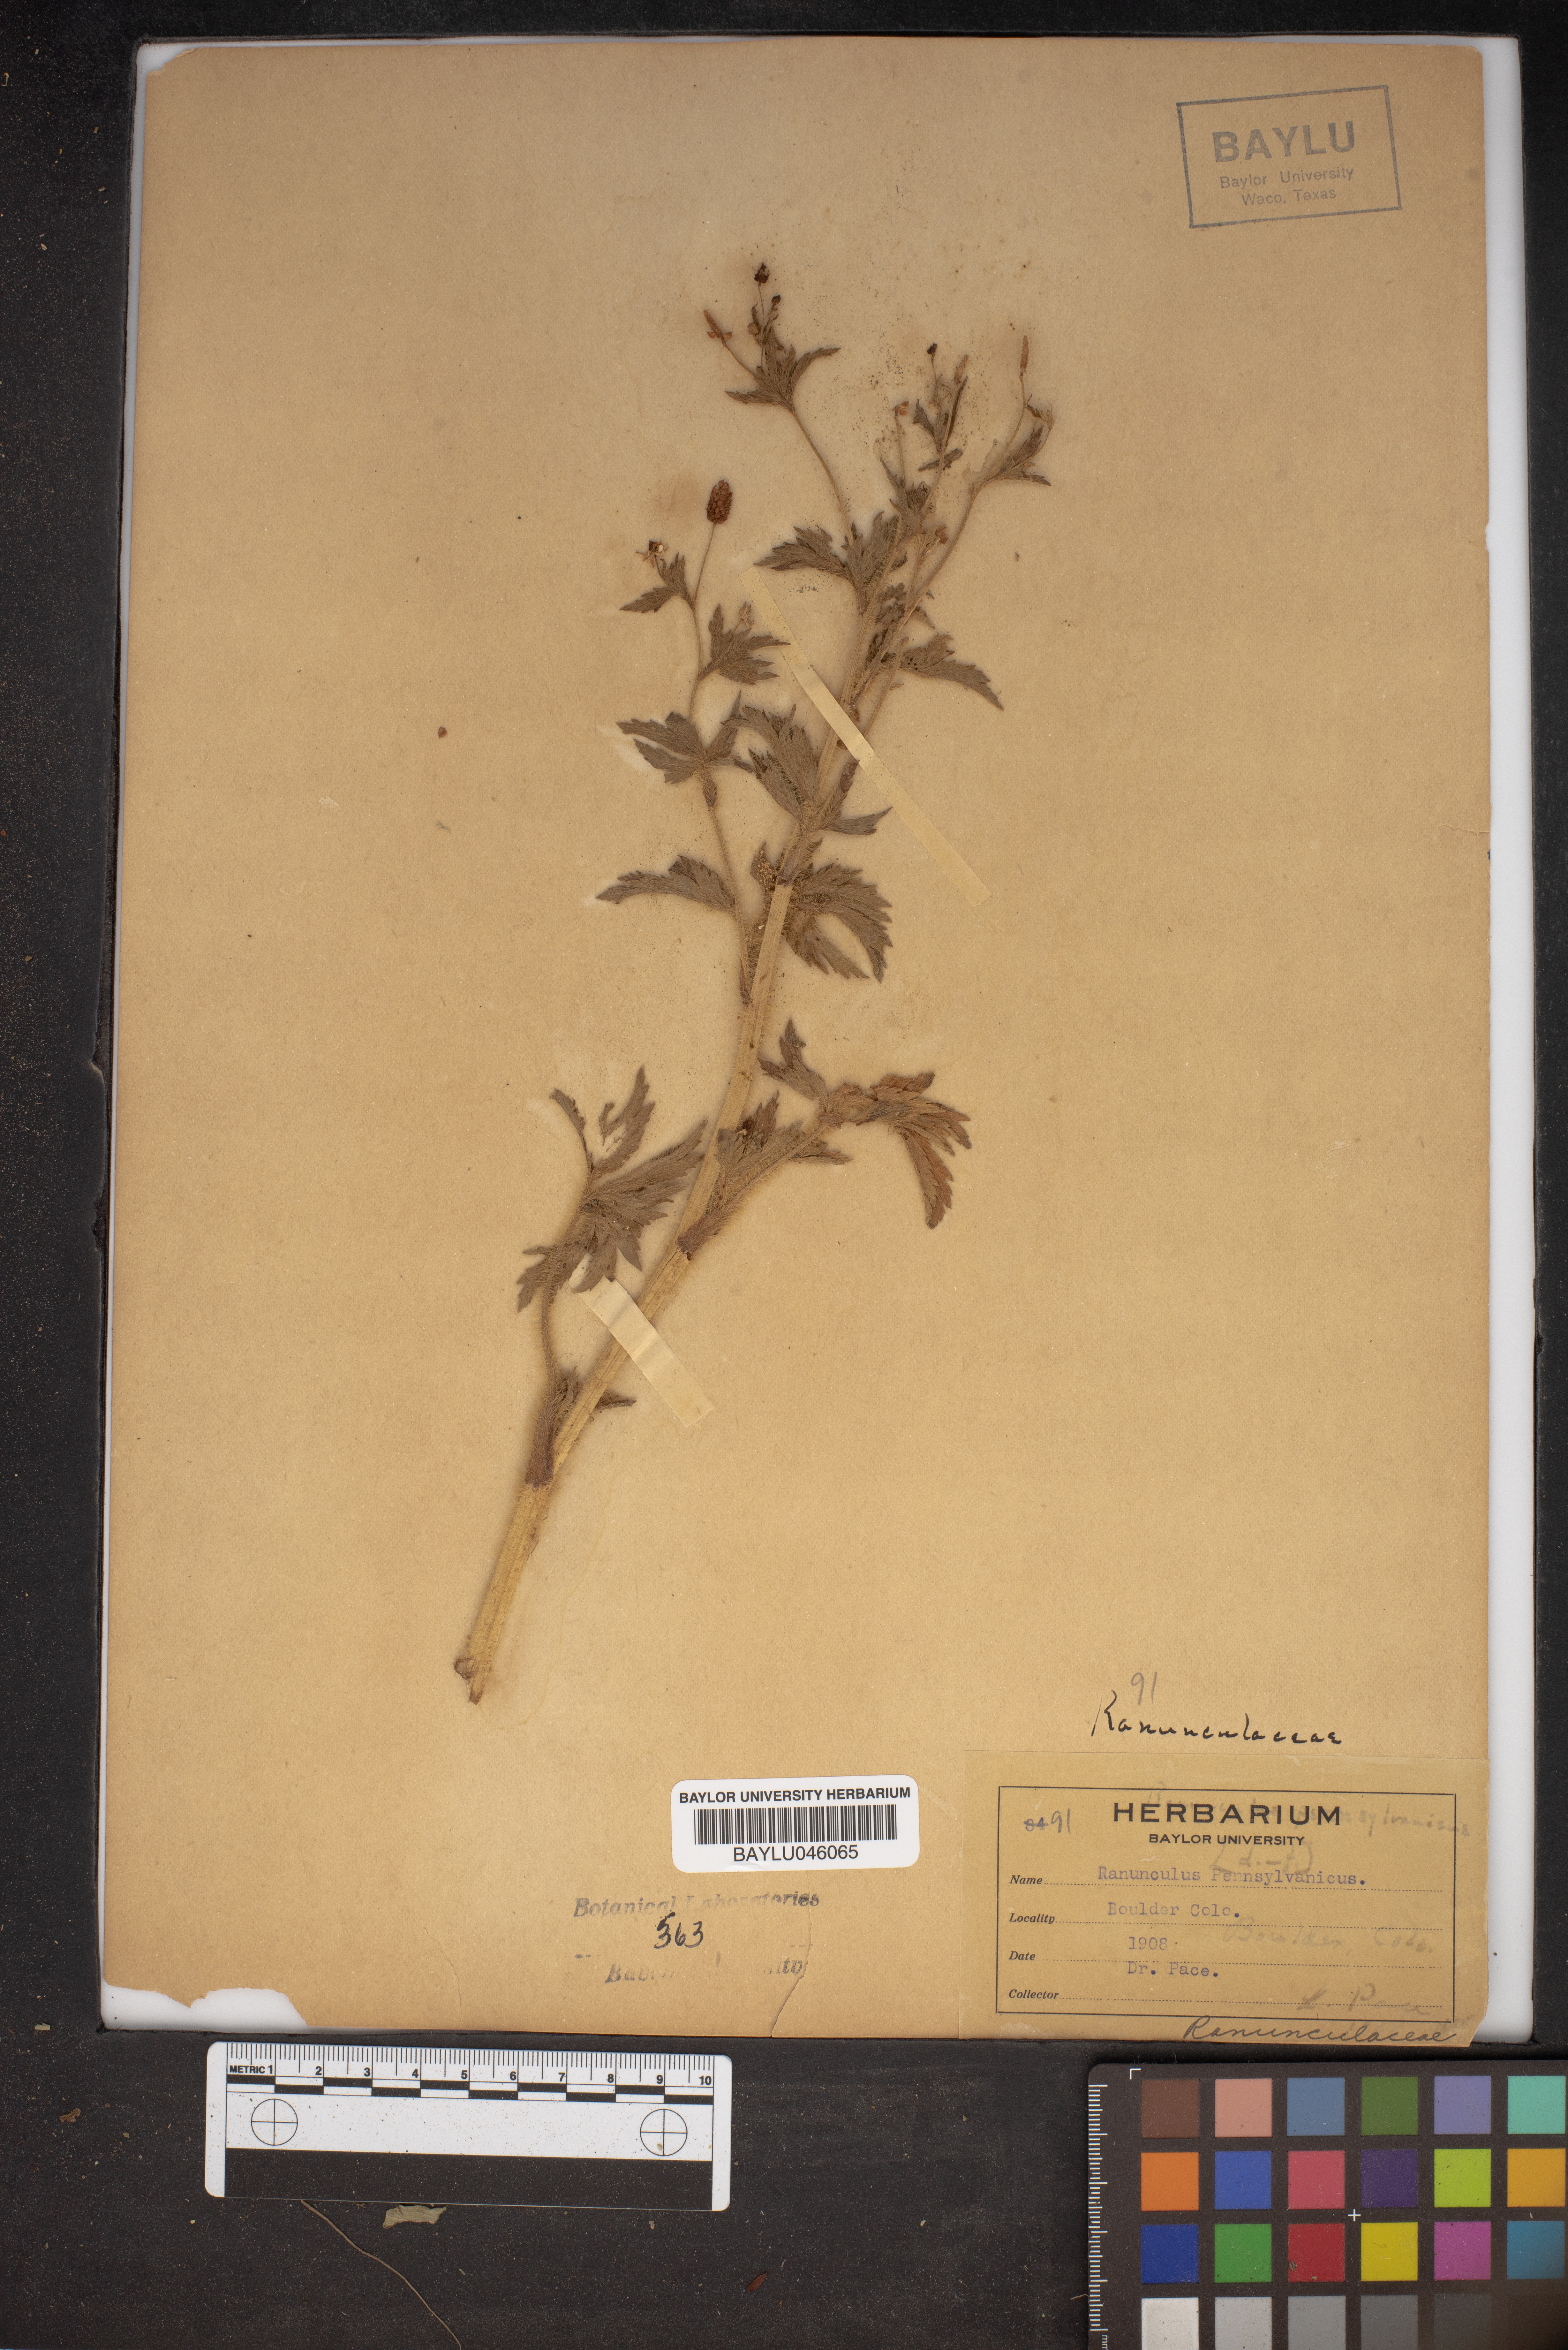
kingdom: Plantae
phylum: Tracheophyta
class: Magnoliopsida
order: Ranunculales
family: Ranunculaceae
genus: Ranunculus
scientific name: Ranunculus pensylvanicus
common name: Bristly buttercup
